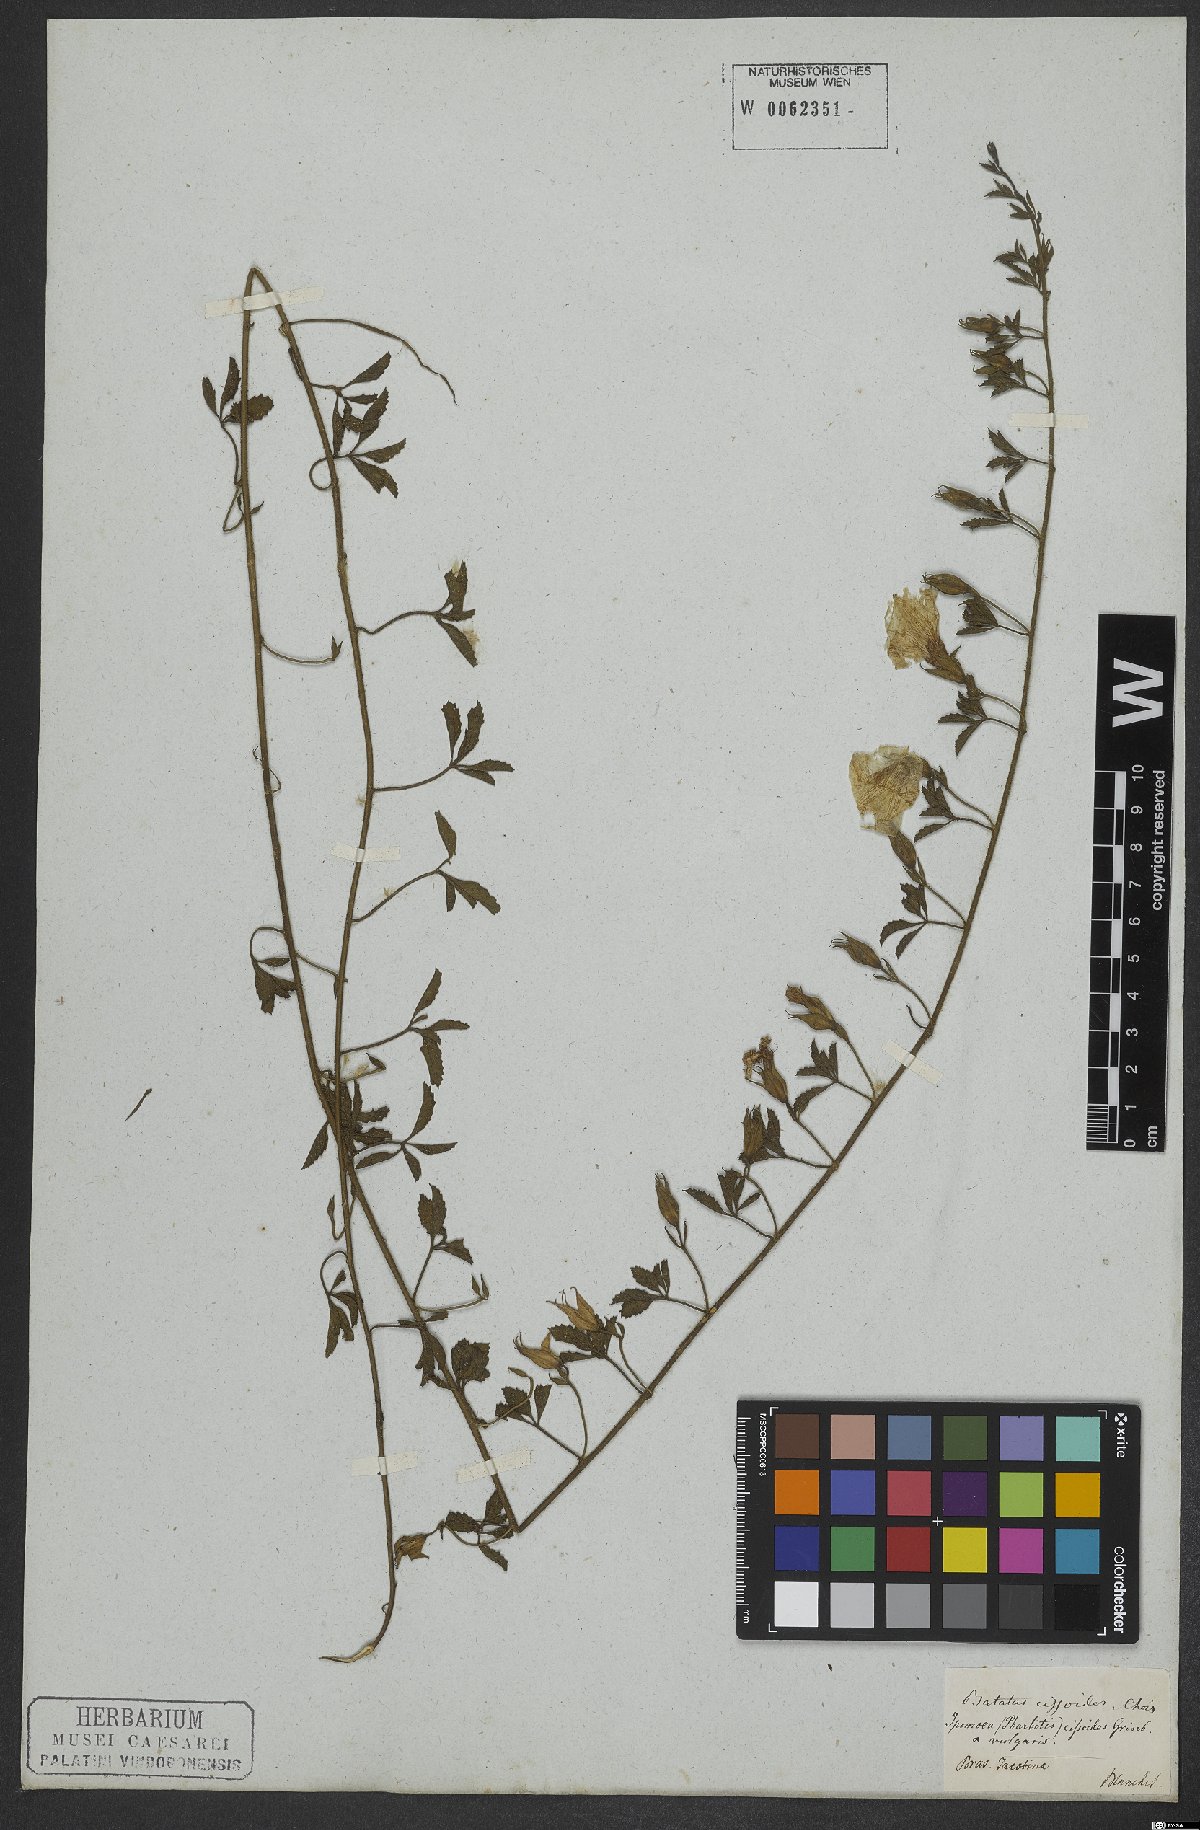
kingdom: Plantae
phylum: Tracheophyta
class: Magnoliopsida
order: Solanales
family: Convolvulaceae
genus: Distimake
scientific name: Distimake cissoides
